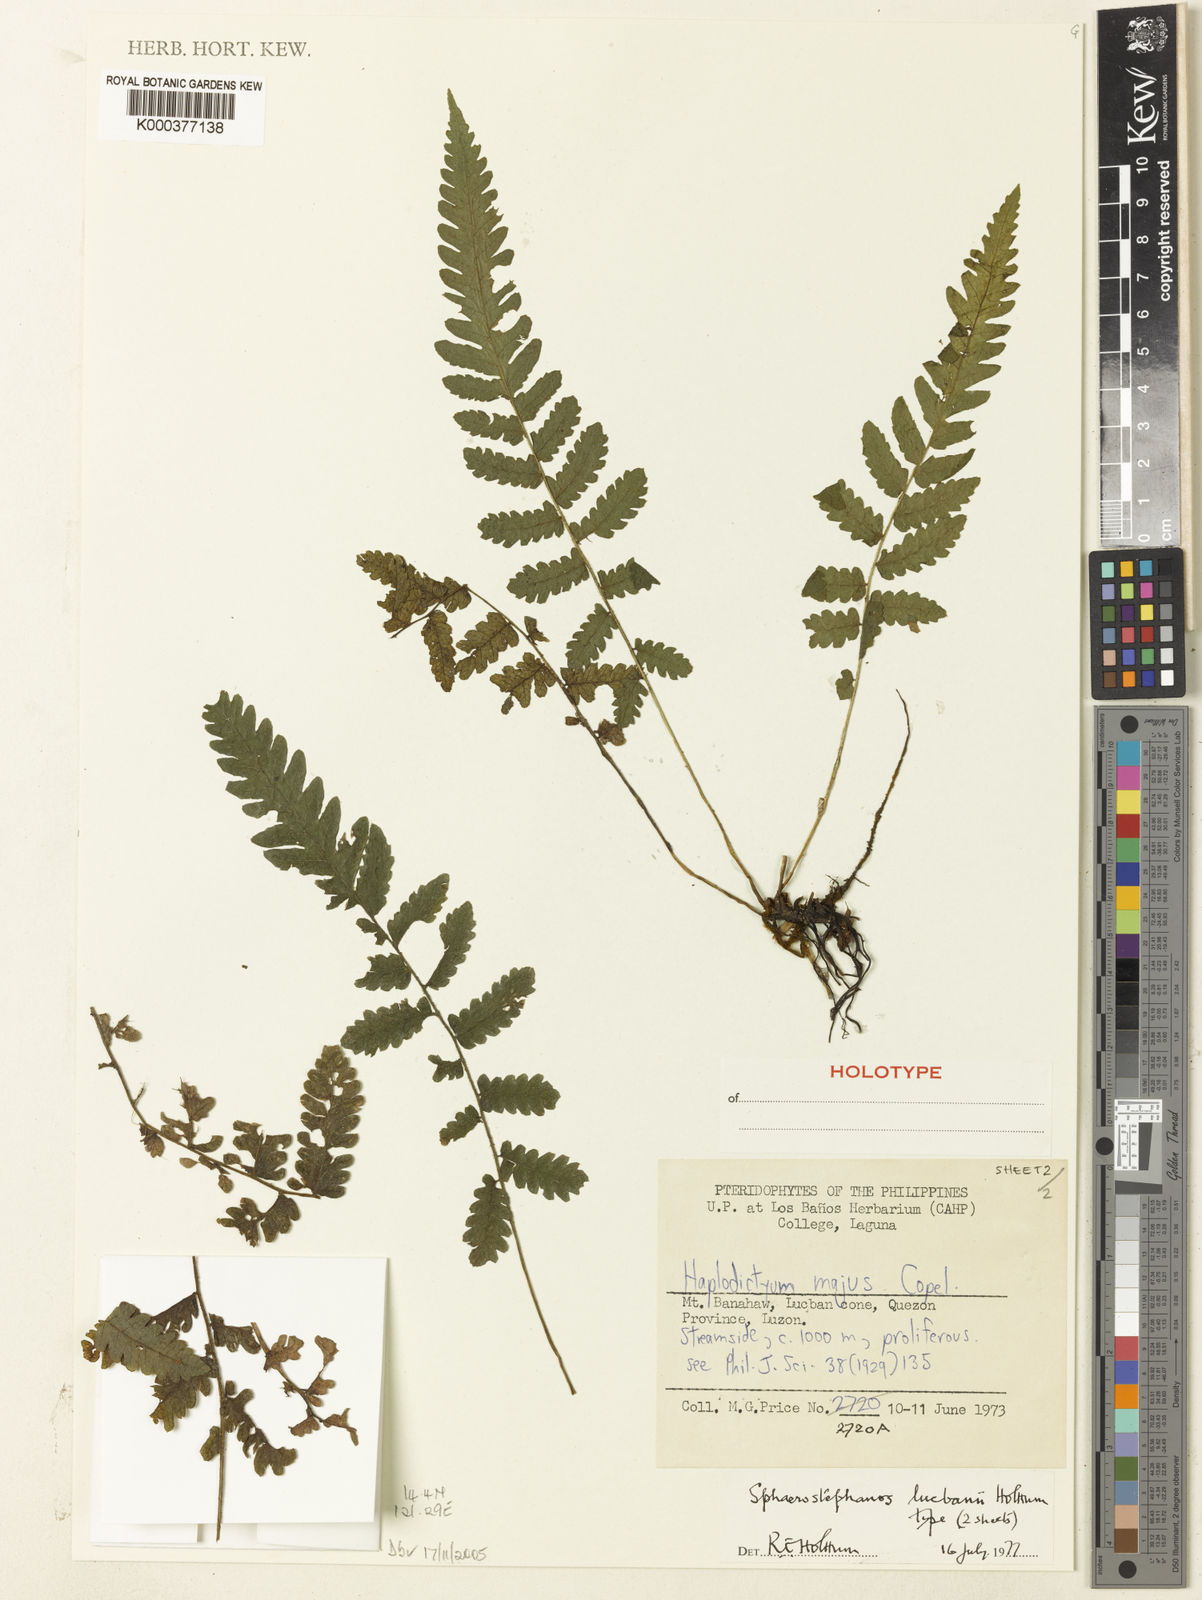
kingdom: Plantae
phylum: Tracheophyta
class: Polypodiopsida
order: Polypodiales
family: Thelypteridaceae
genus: Sphaerostephanos
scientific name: Sphaerostephanos diminutus
